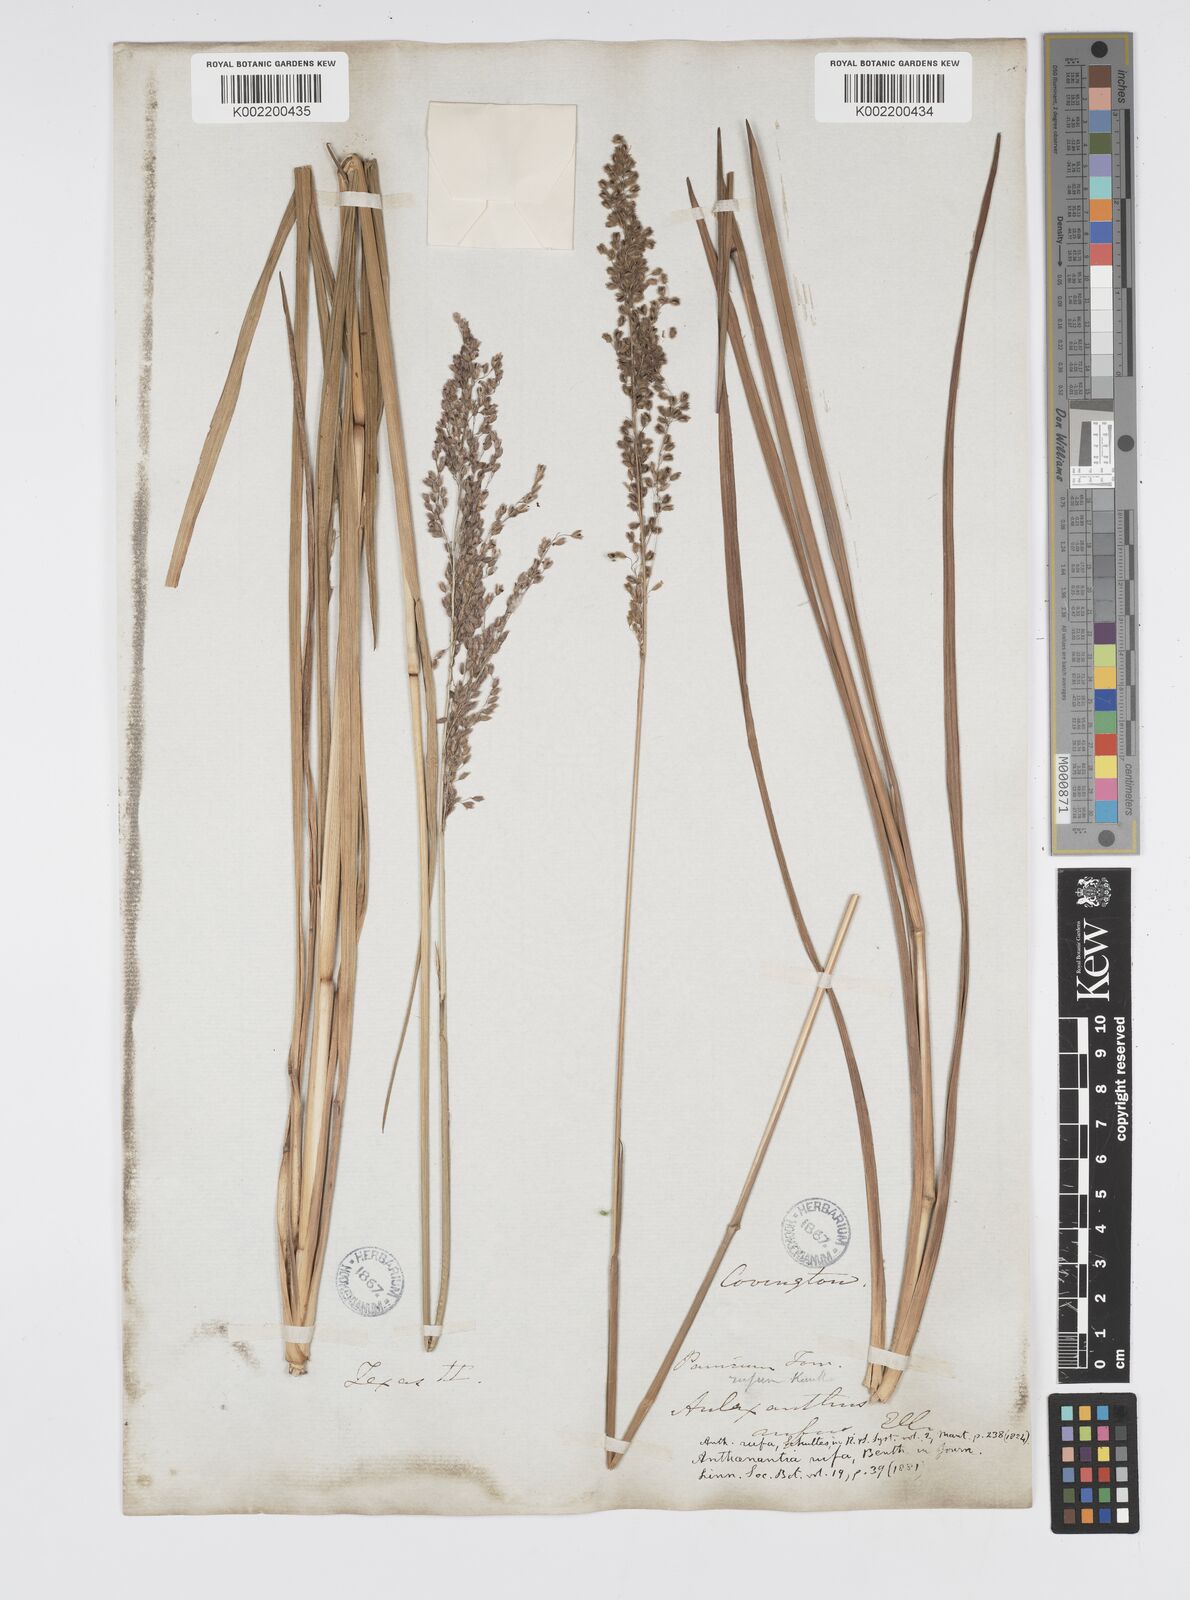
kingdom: Plantae
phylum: Tracheophyta
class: Liliopsida
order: Poales
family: Poaceae
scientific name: Poaceae
